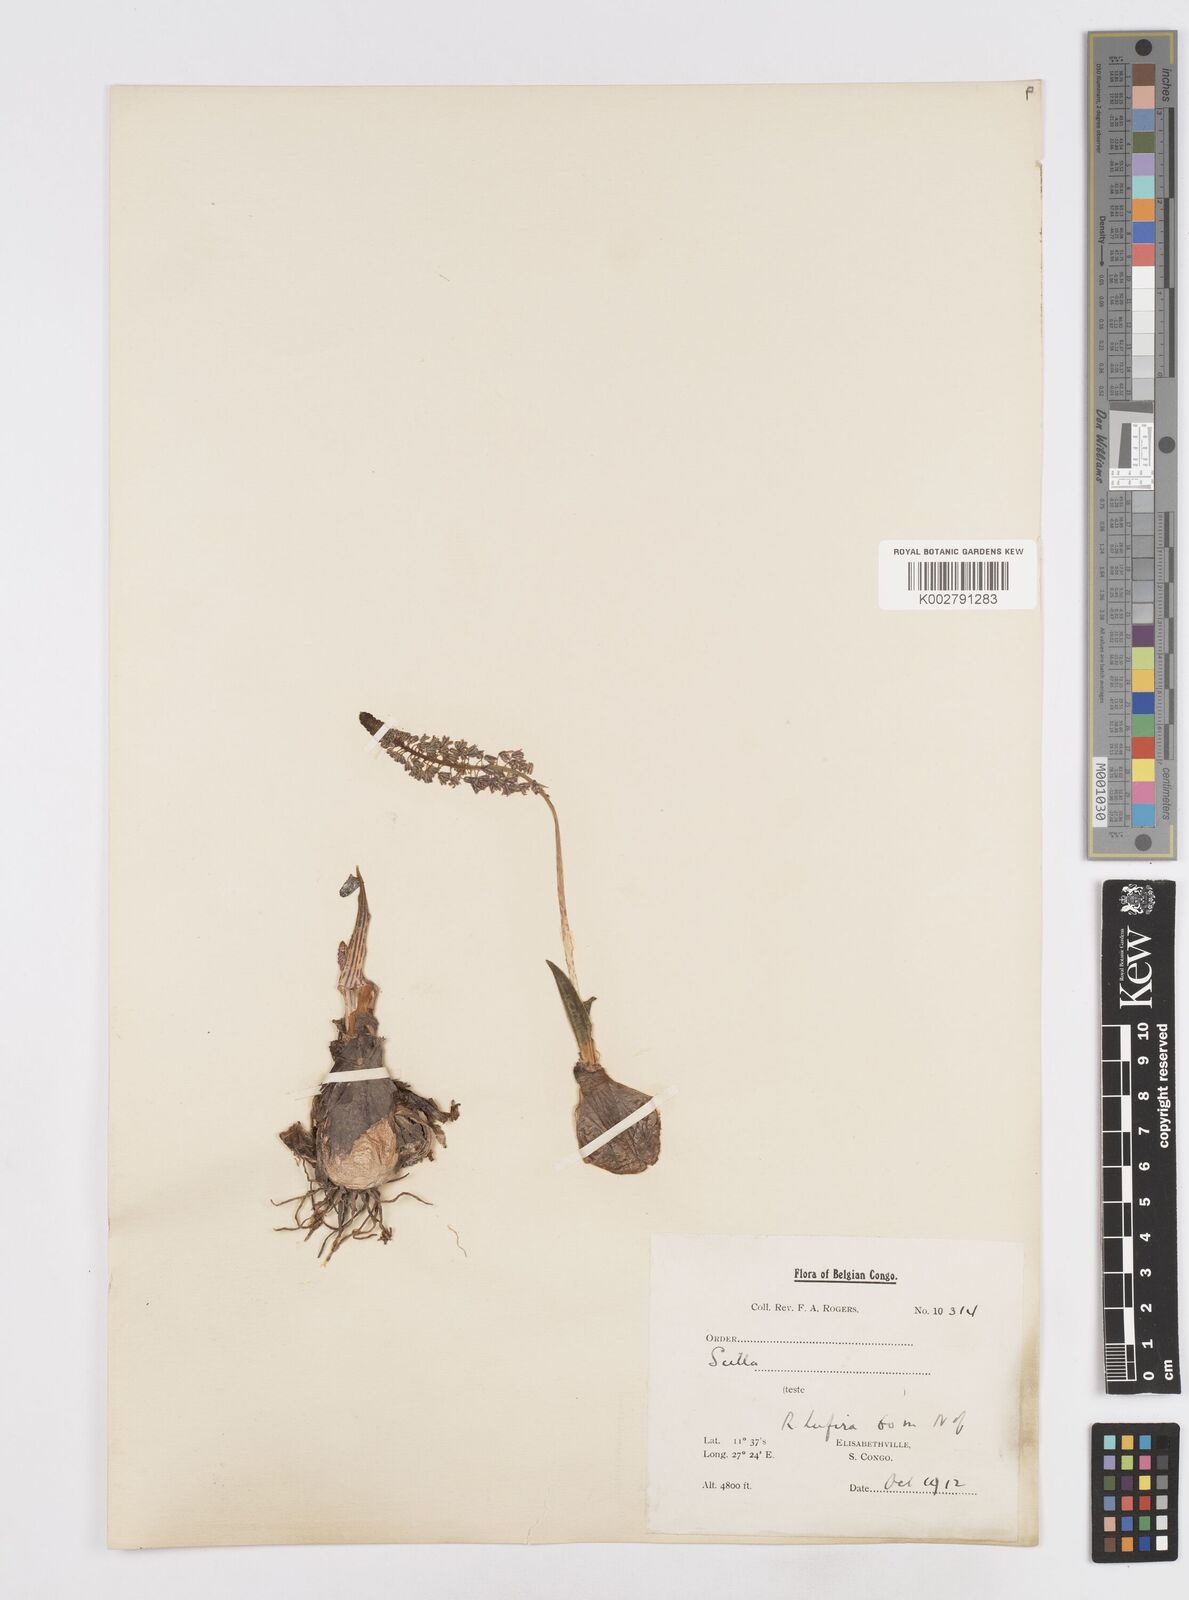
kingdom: Plantae
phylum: Tracheophyta
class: Liliopsida
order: Asparagales
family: Asparagaceae
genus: Scilla
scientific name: Scilla
